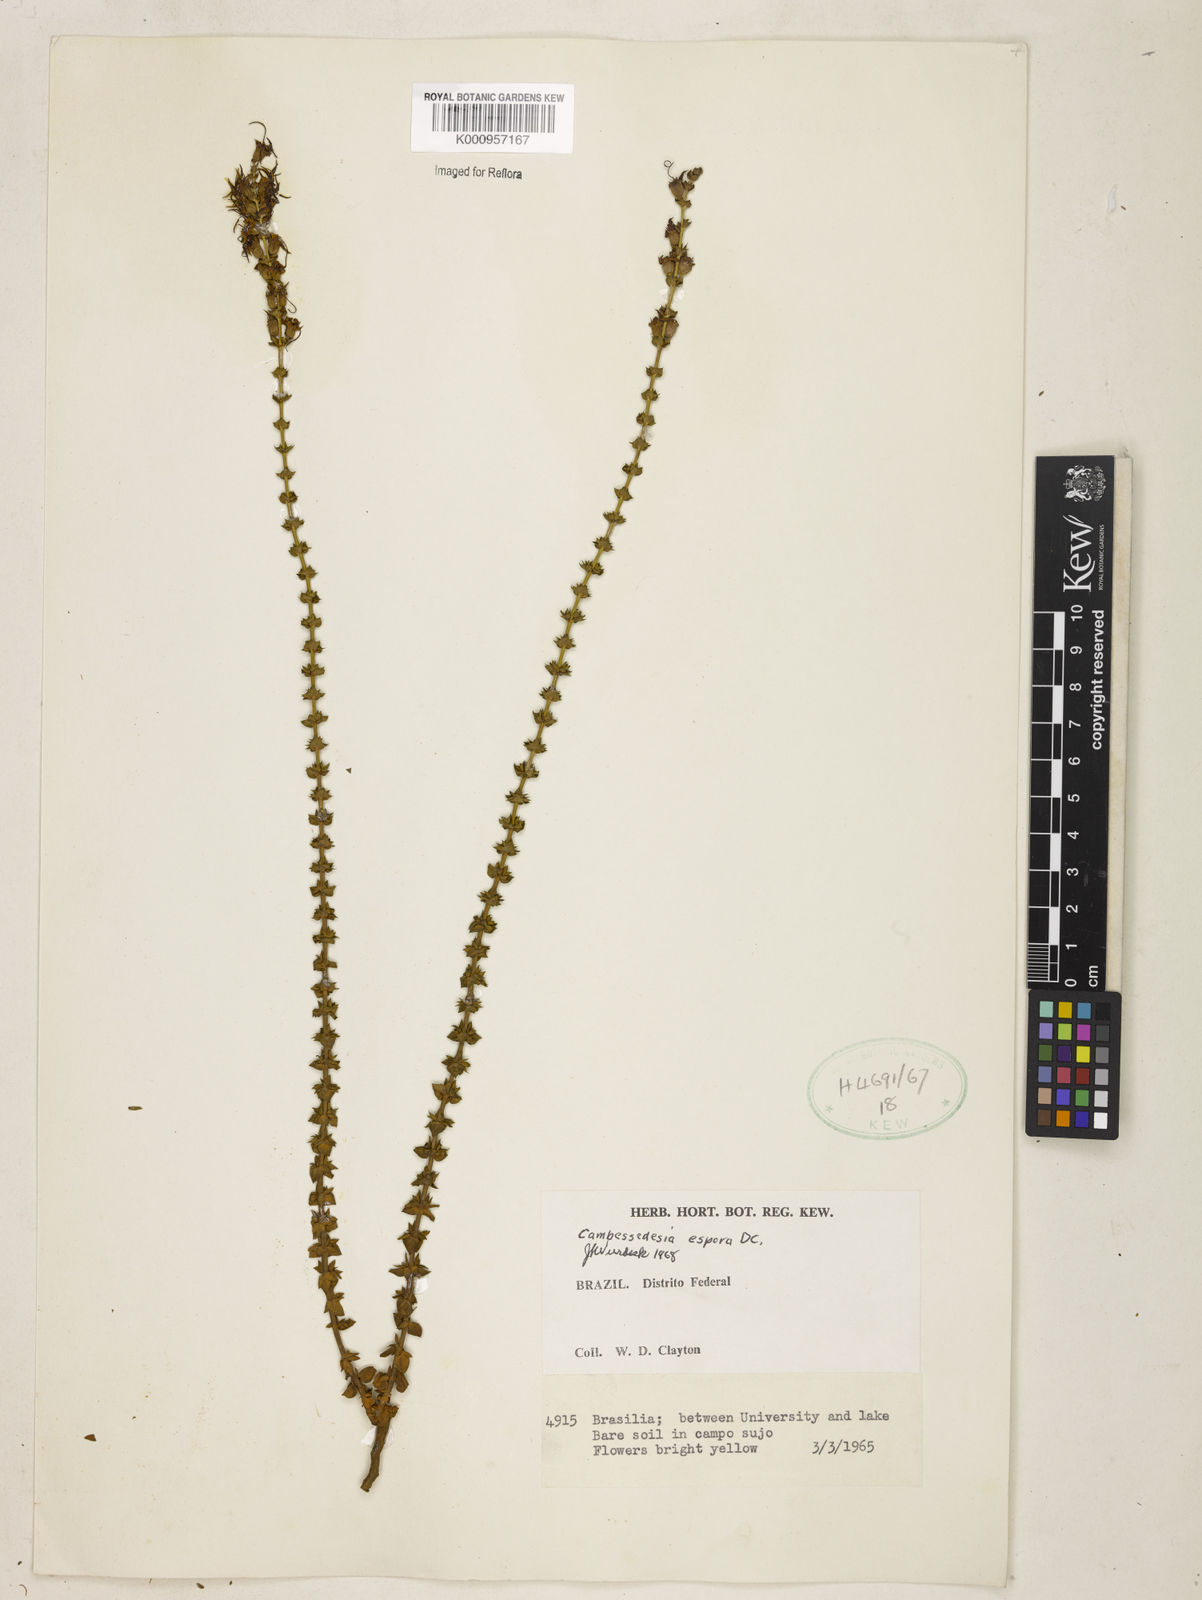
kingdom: Plantae
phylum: Tracheophyta
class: Magnoliopsida
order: Myrtales
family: Melastomataceae
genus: Cambessedesia
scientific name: Cambessedesia espora
